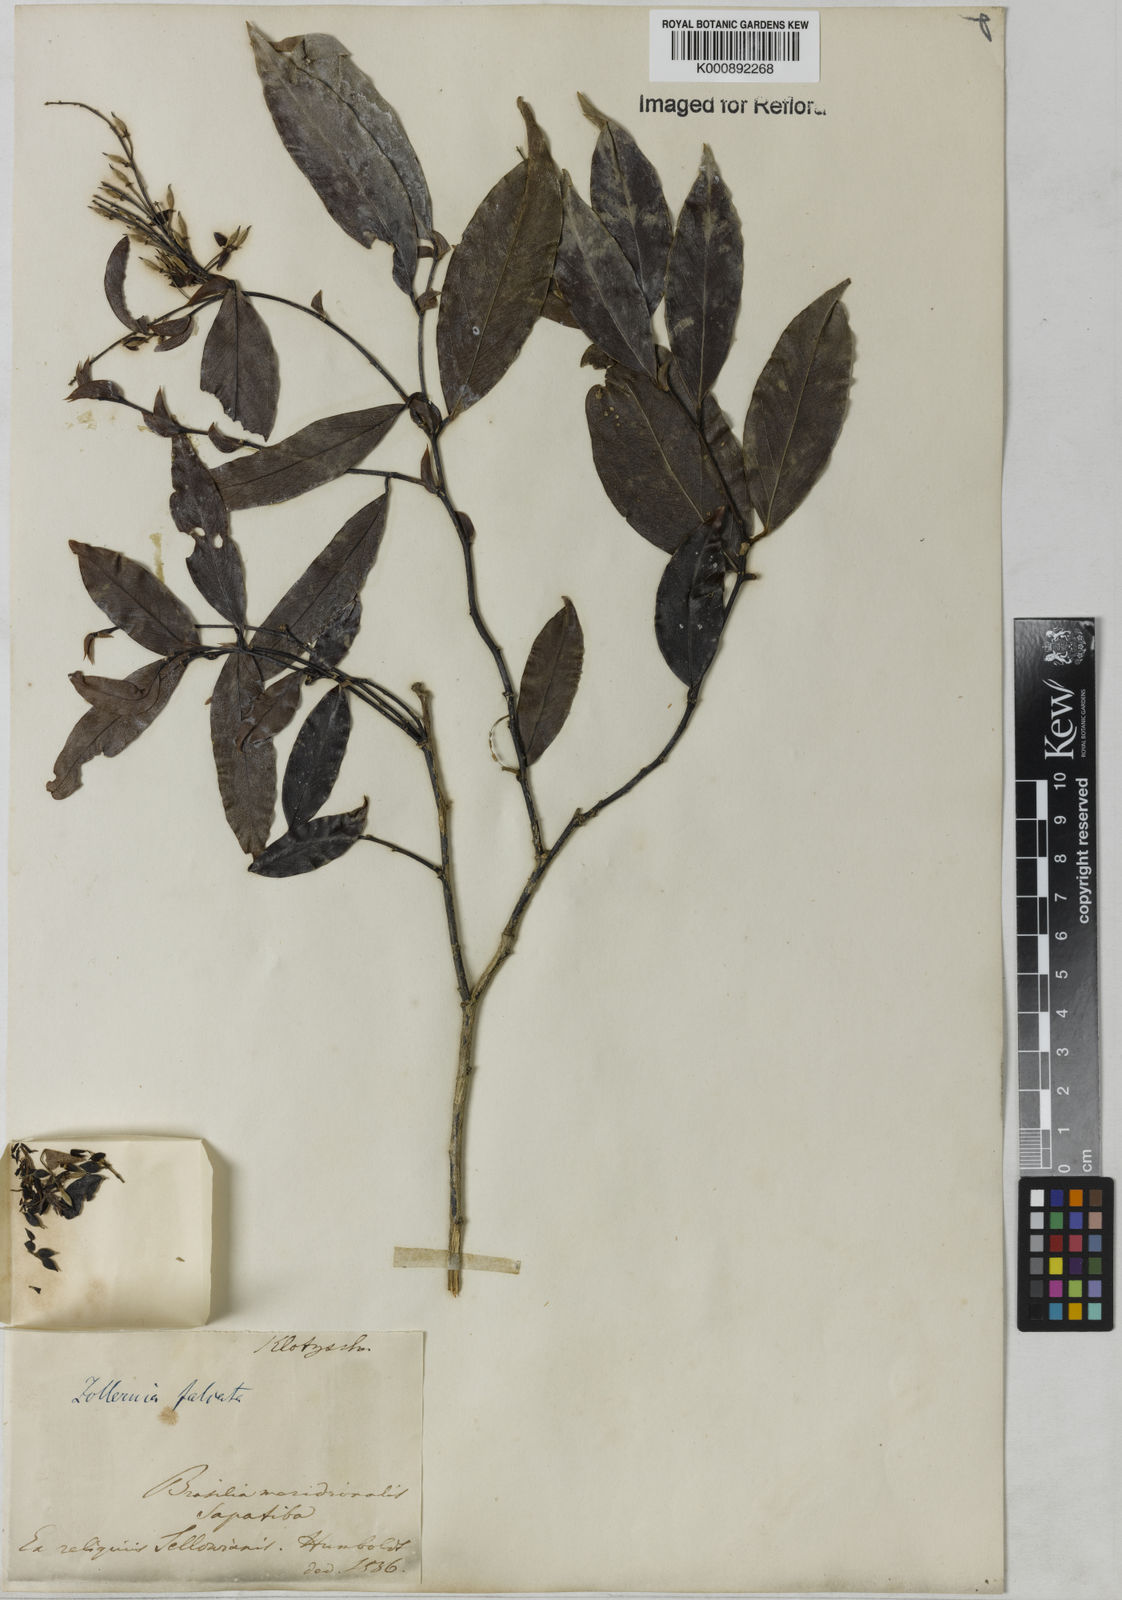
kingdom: Plantae
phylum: Tracheophyta
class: Magnoliopsida
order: Fabales
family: Fabaceae
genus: Zollernia
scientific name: Zollernia glabra
